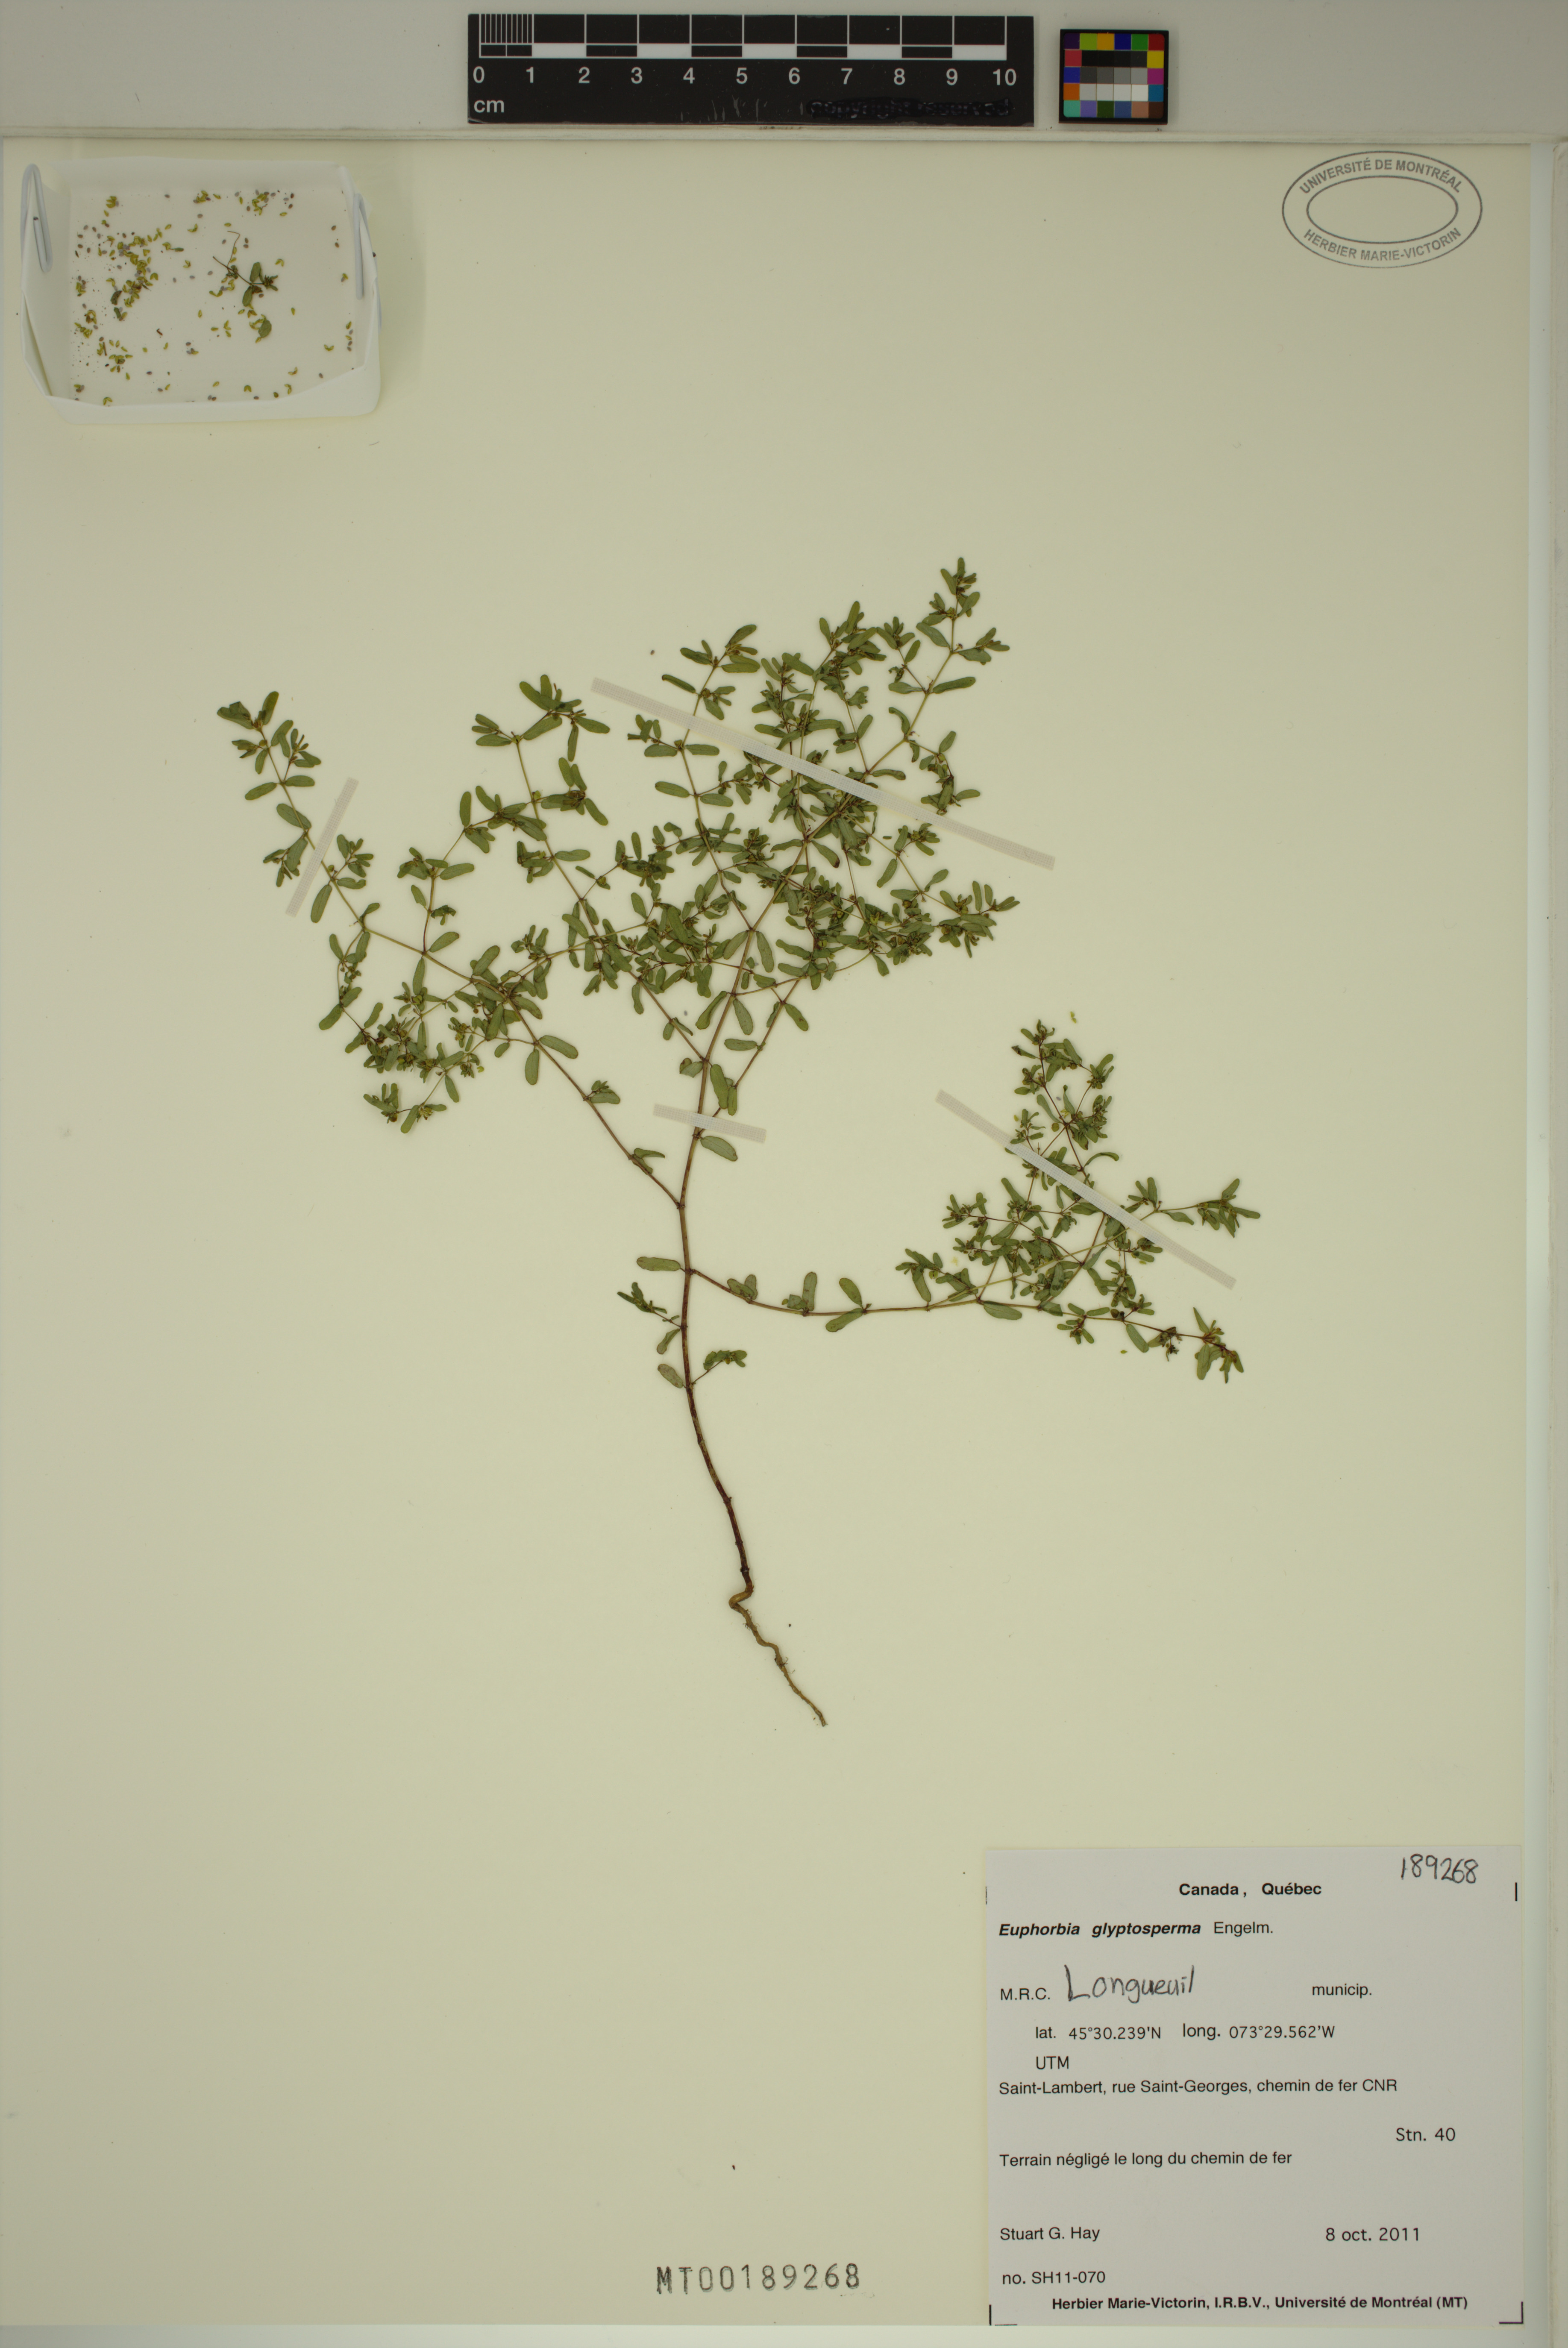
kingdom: Plantae
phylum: Tracheophyta
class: Magnoliopsida
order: Malpighiales
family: Euphorbiaceae
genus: Euphorbia
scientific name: Euphorbia glyptosperma
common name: Corrugate-seeded spurge
